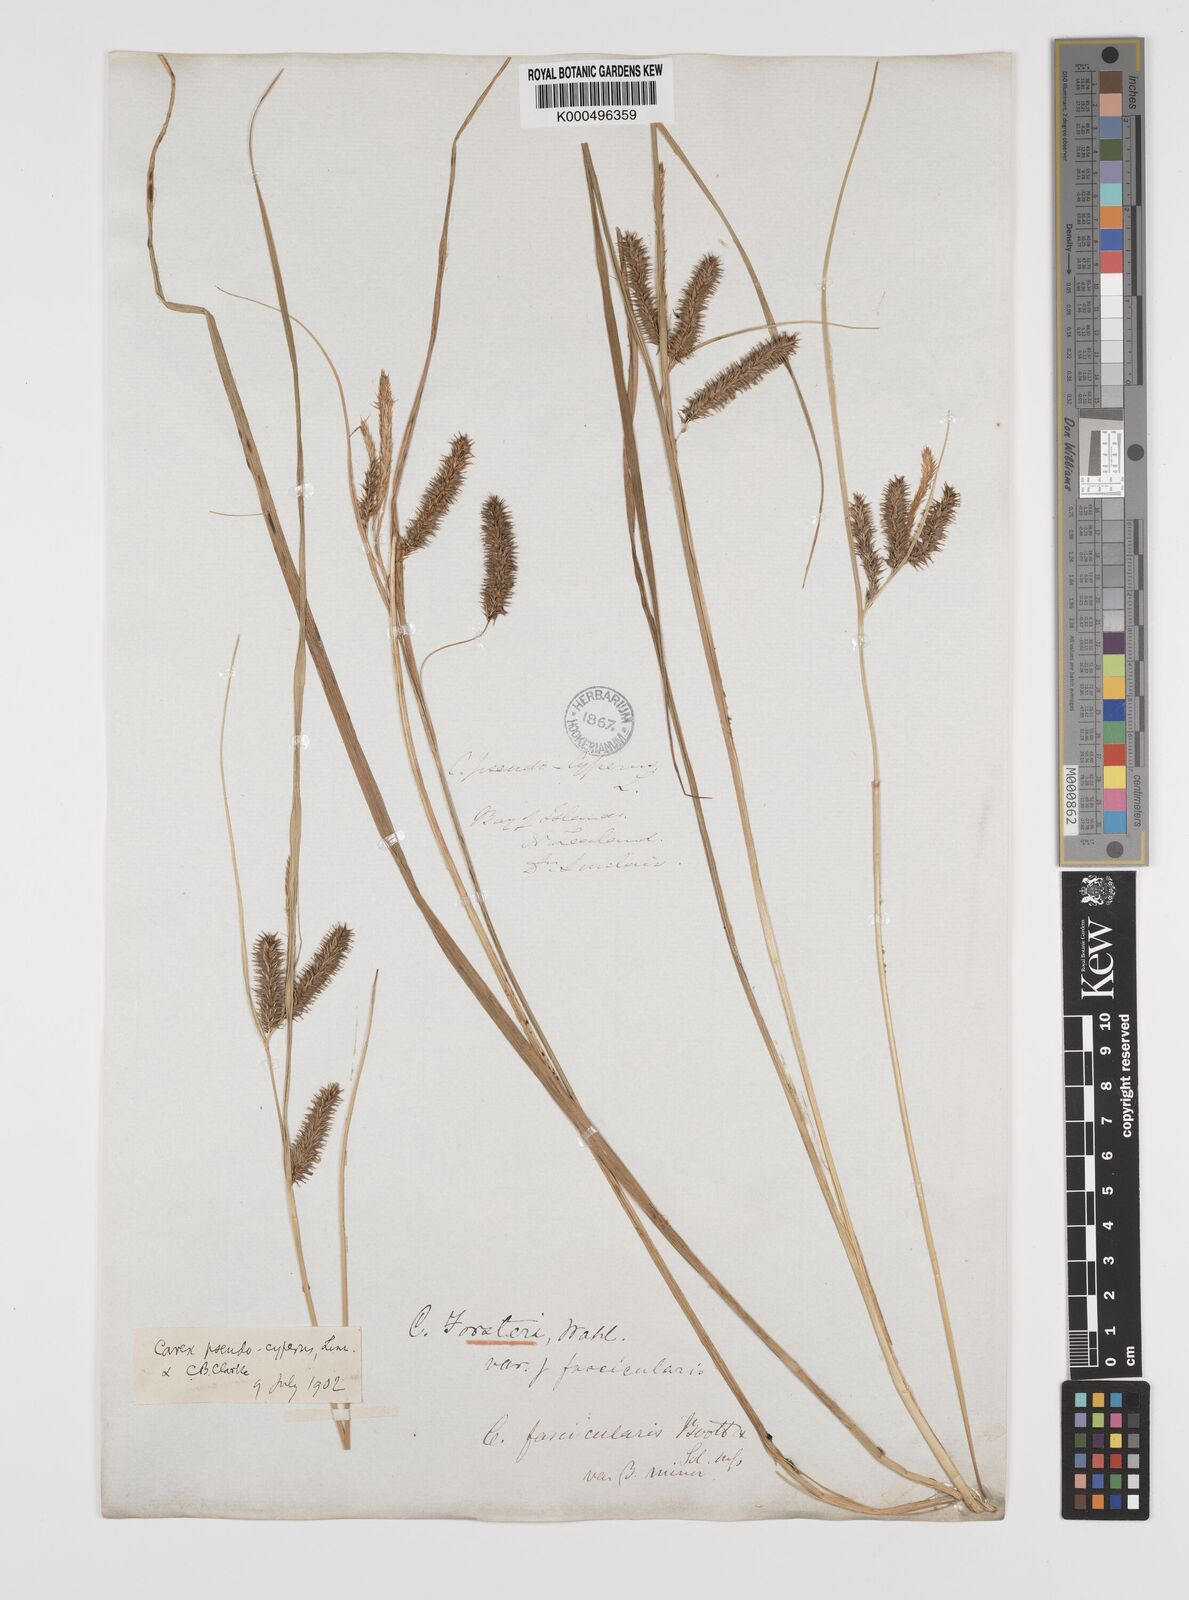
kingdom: Plantae
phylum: Tracheophyta
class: Liliopsida
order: Poales
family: Cyperaceae
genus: Carex
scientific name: Carex maorica
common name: Maori sedge
